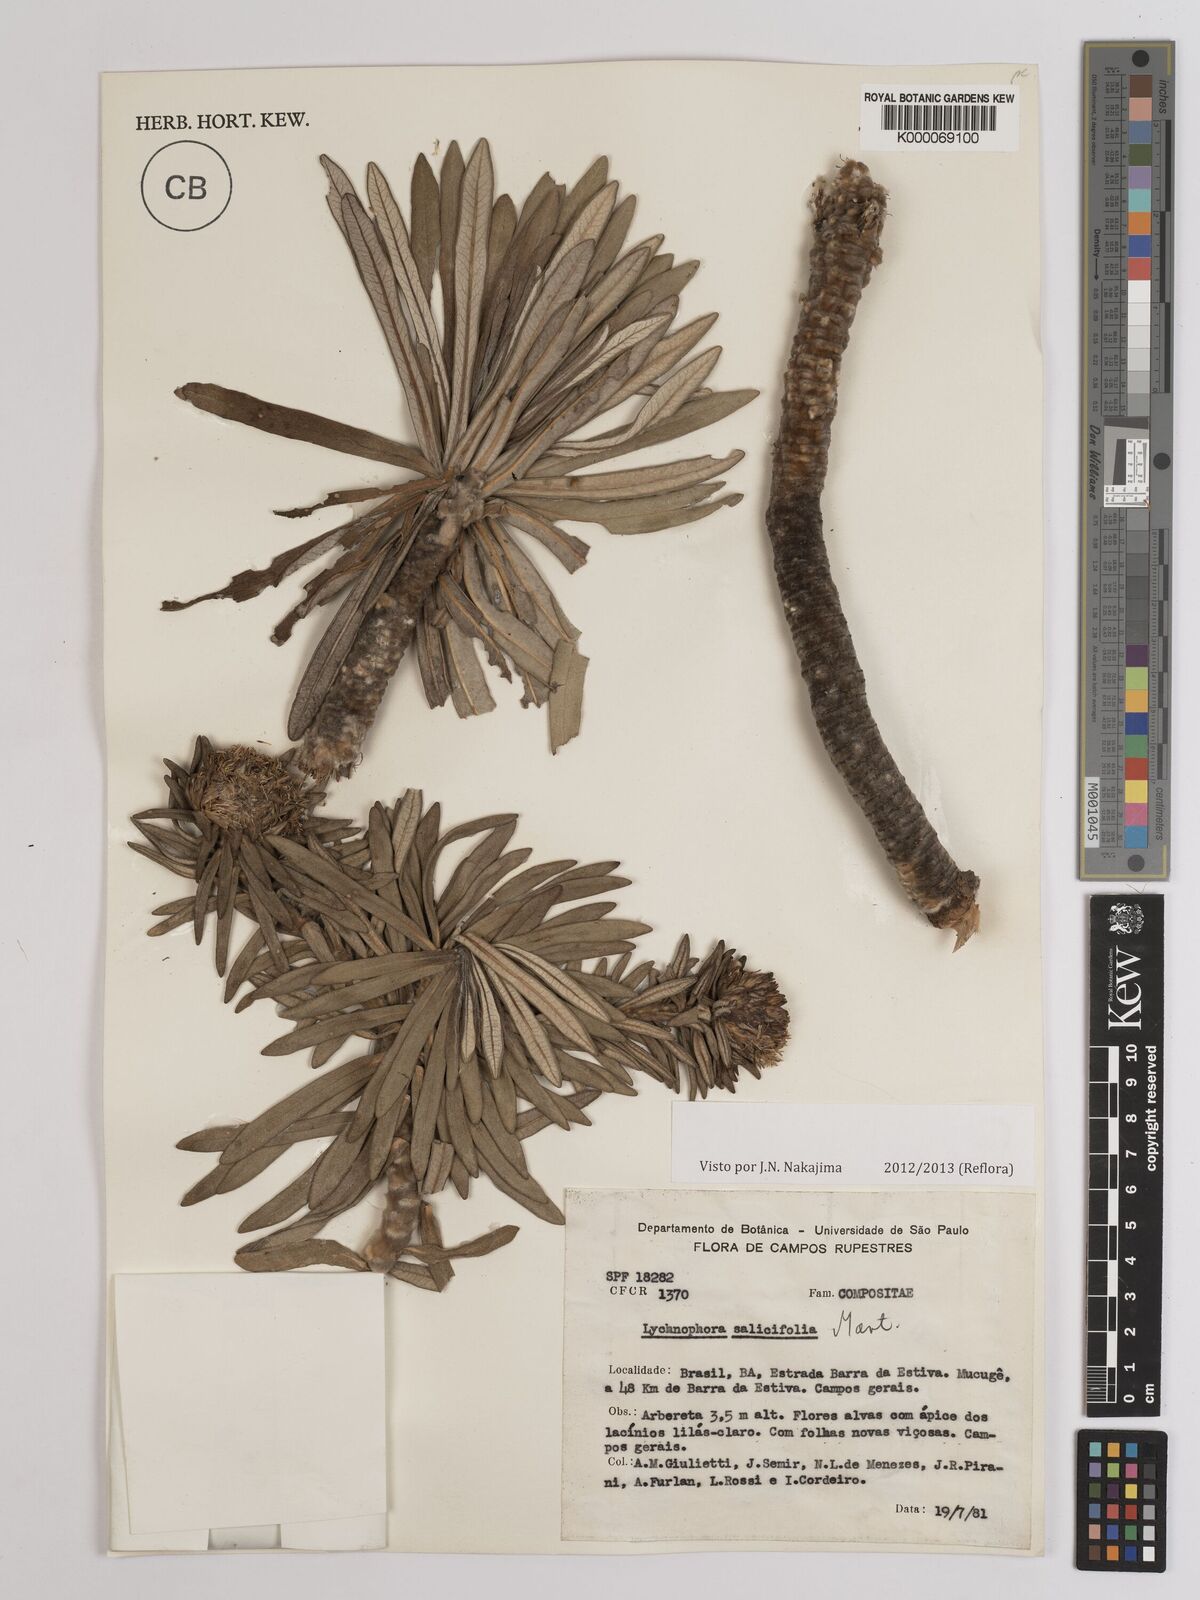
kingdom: Plantae
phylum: Tracheophyta
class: Magnoliopsida
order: Asterales
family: Asteraceae
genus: Lychnophora
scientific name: Lychnophora salicifolia
